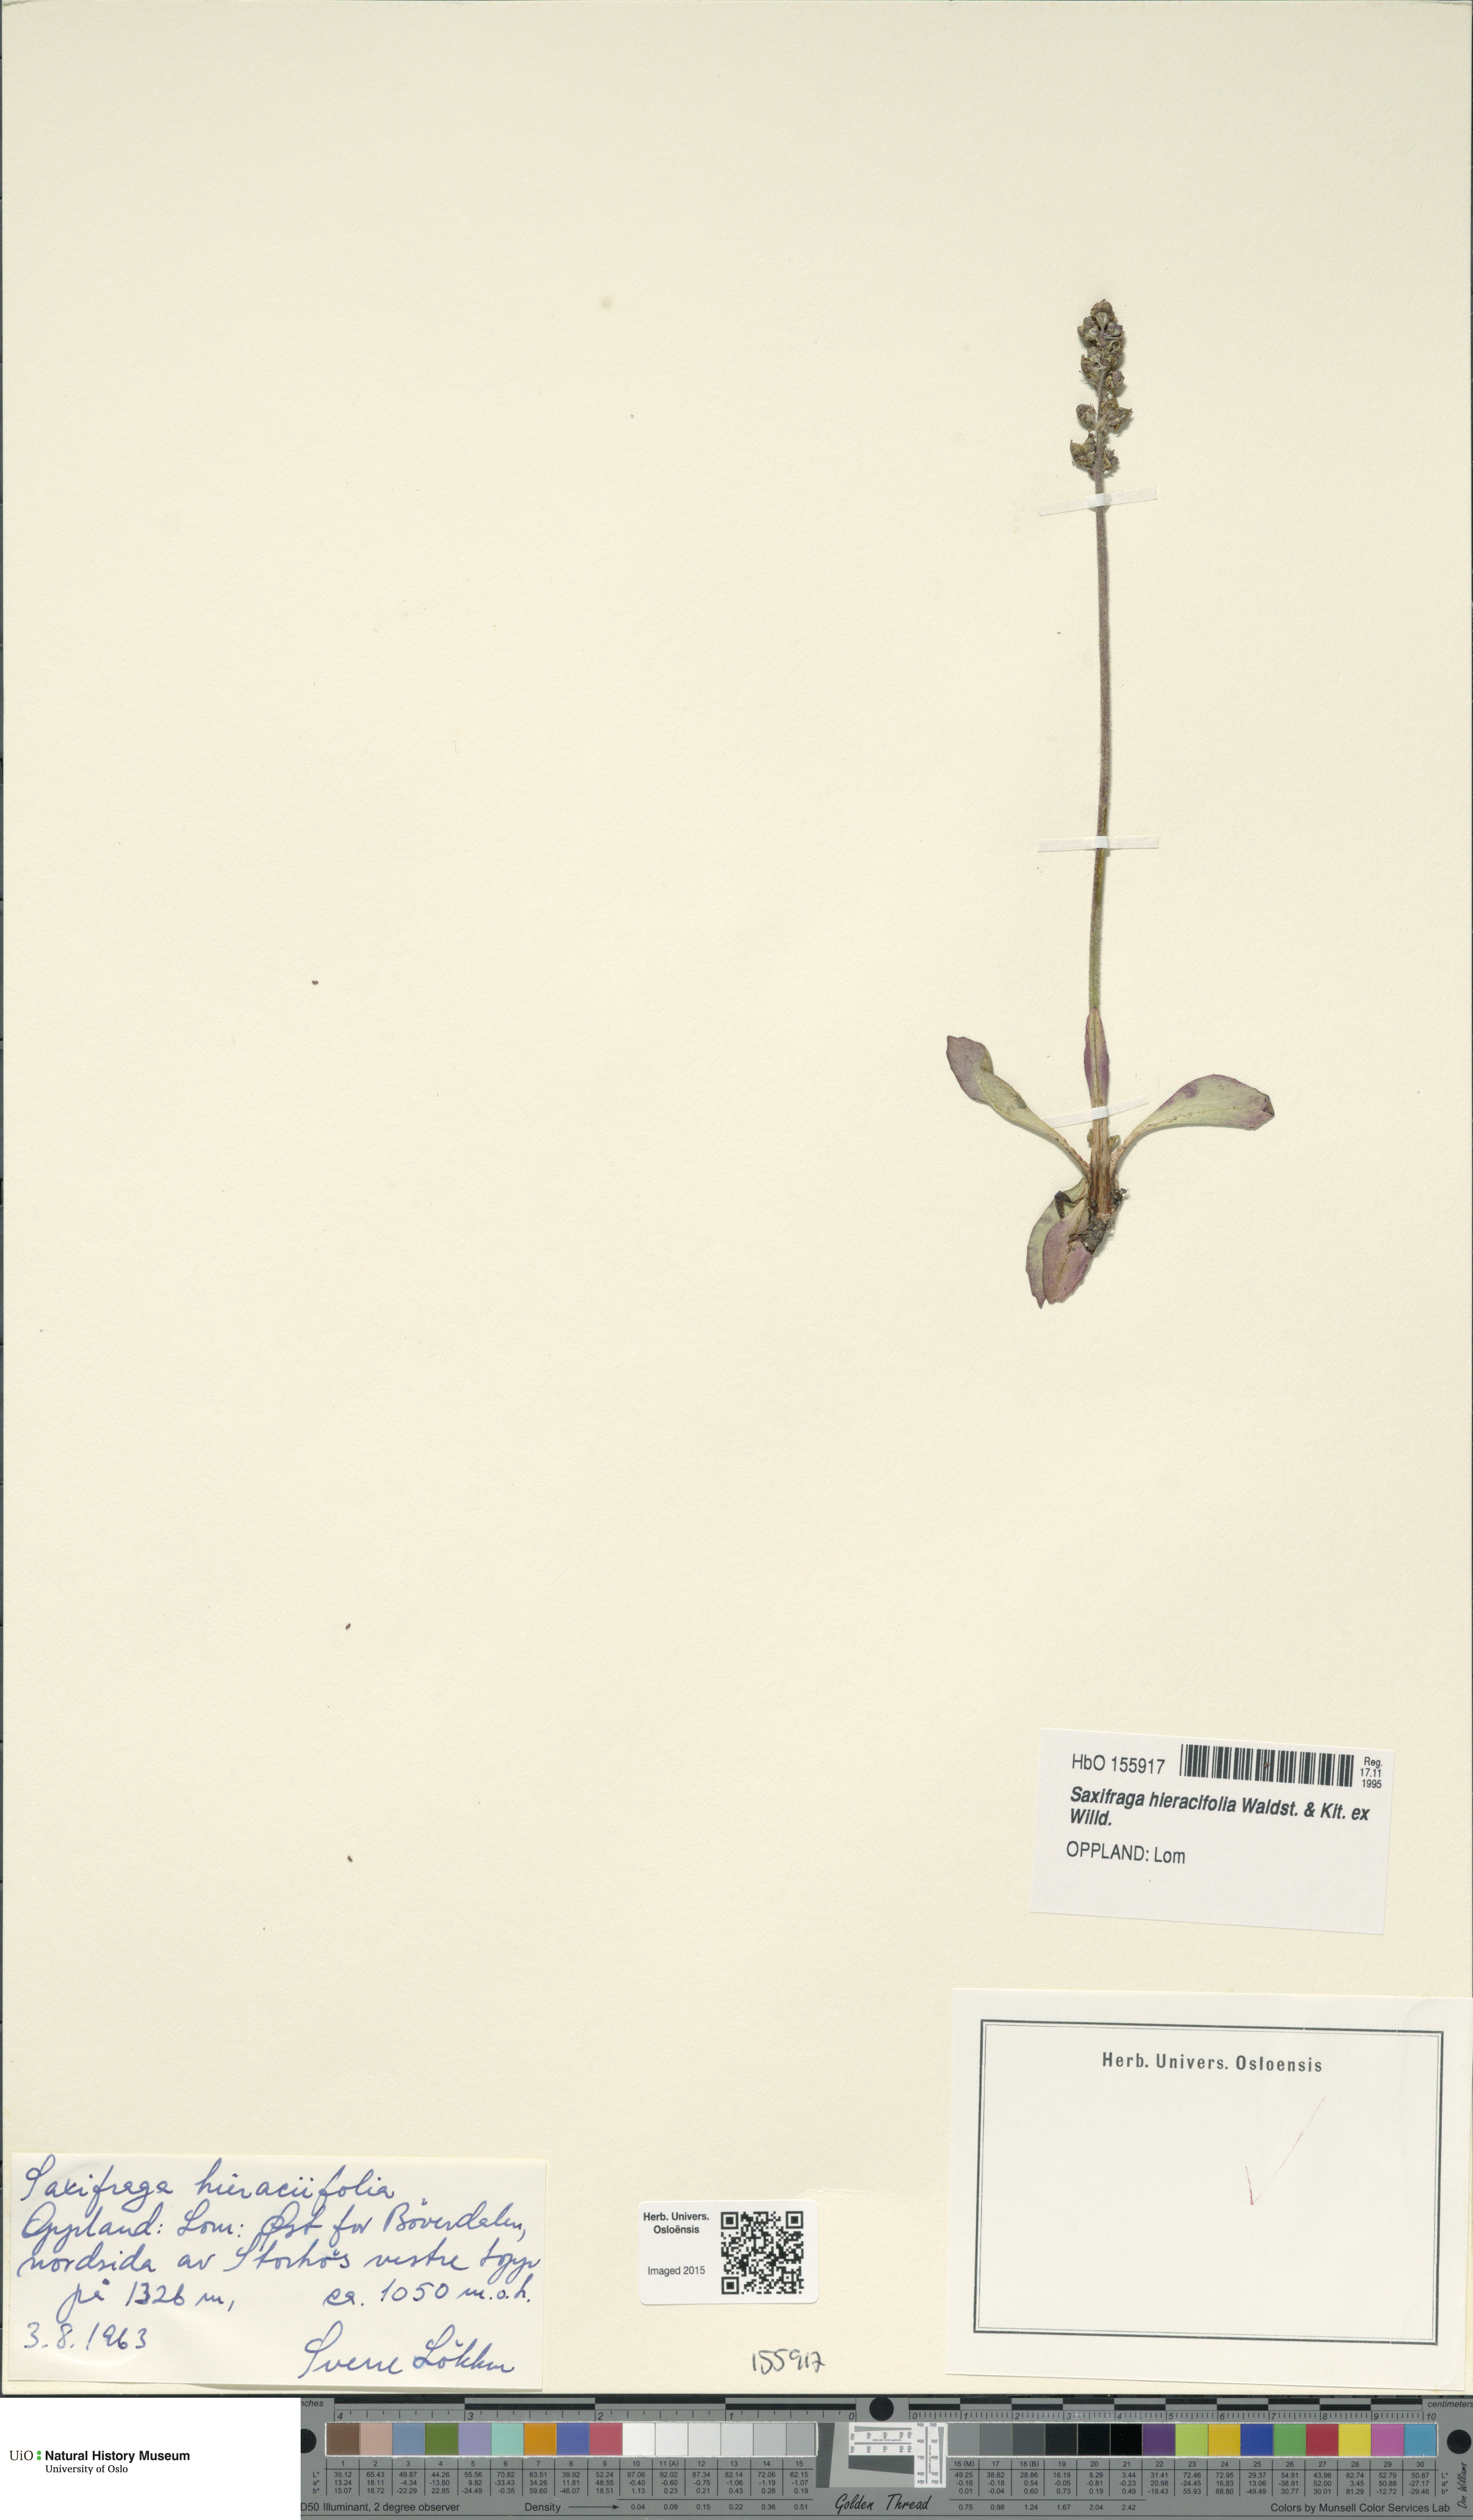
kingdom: Plantae
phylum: Tracheophyta
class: Magnoliopsida
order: Saxifragales
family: Saxifragaceae
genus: Micranthes
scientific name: Micranthes hieraciifolia
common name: Hawkweed-leaved saxifrage
